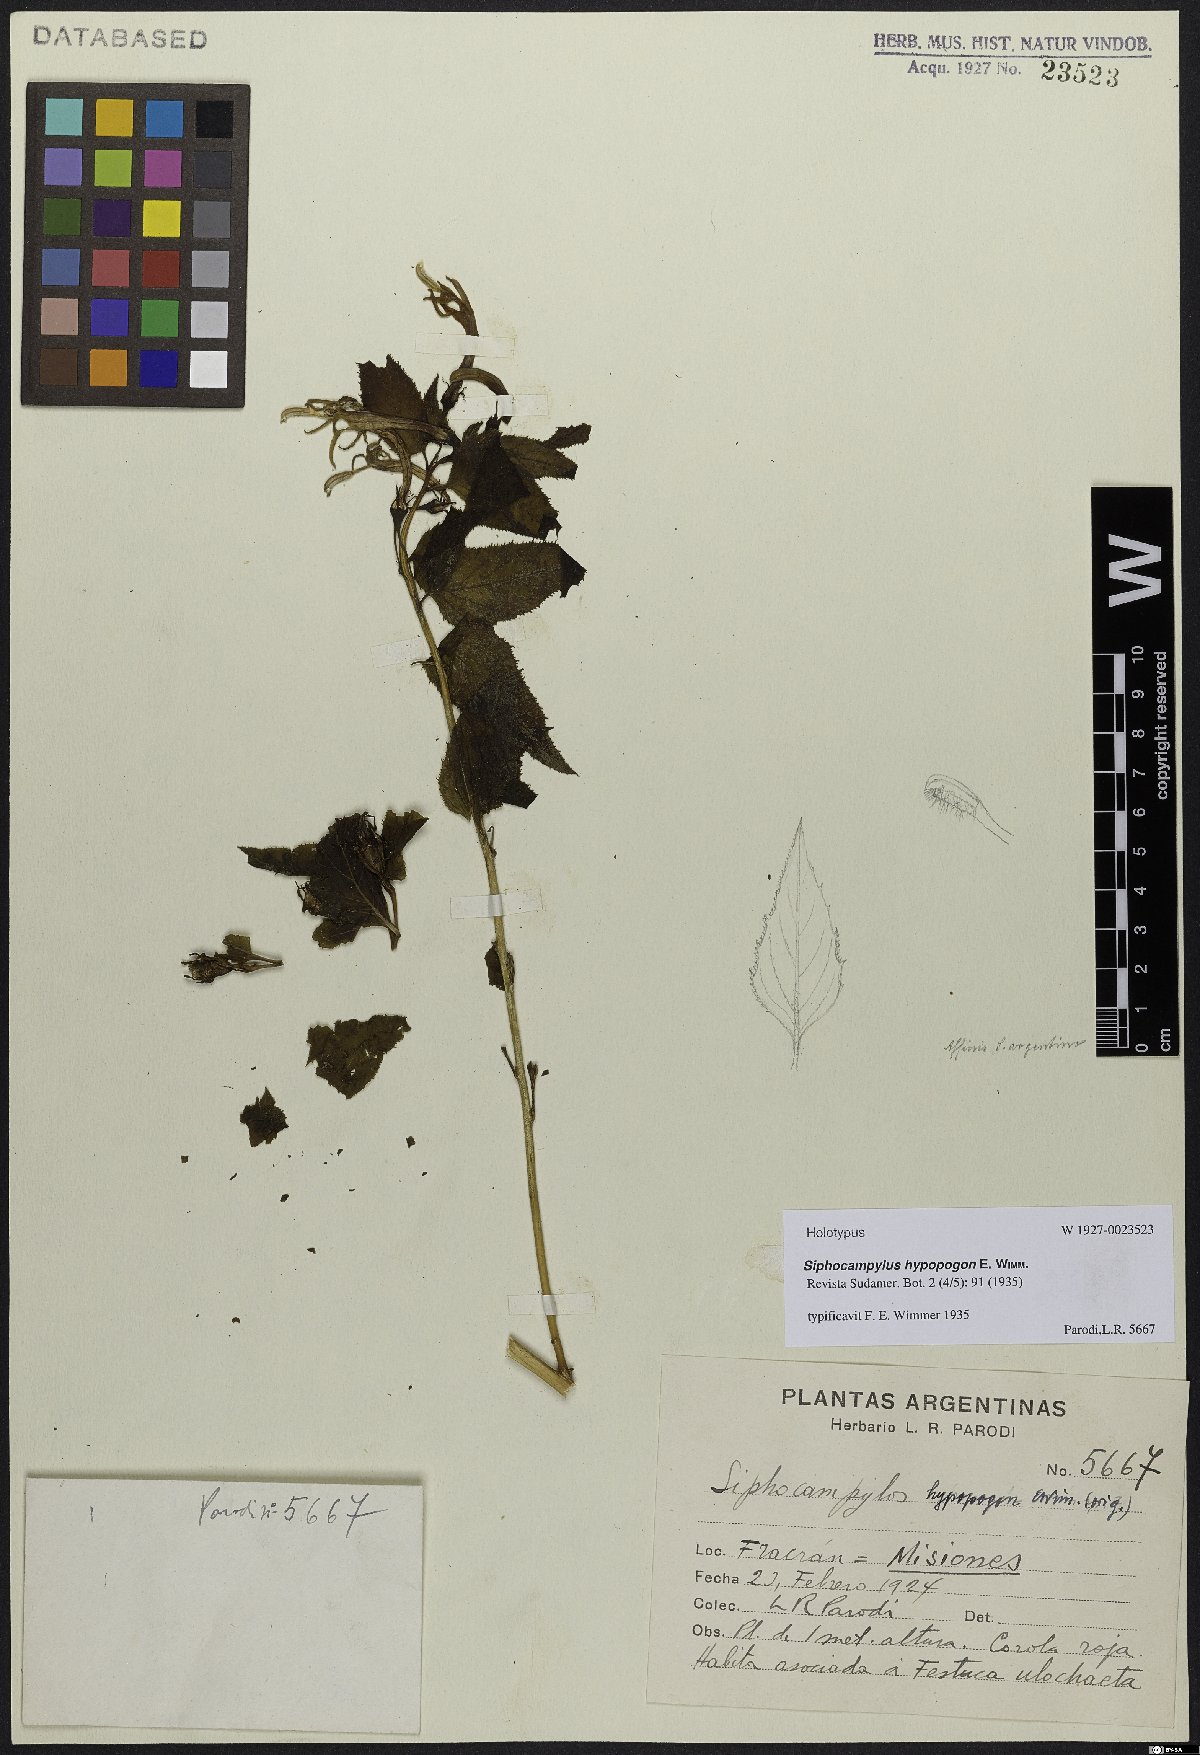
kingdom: Plantae
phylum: Tracheophyta
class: Magnoliopsida
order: Asterales
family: Campanulaceae
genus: Siphocampylus
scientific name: Siphocampylus yerbalensis
